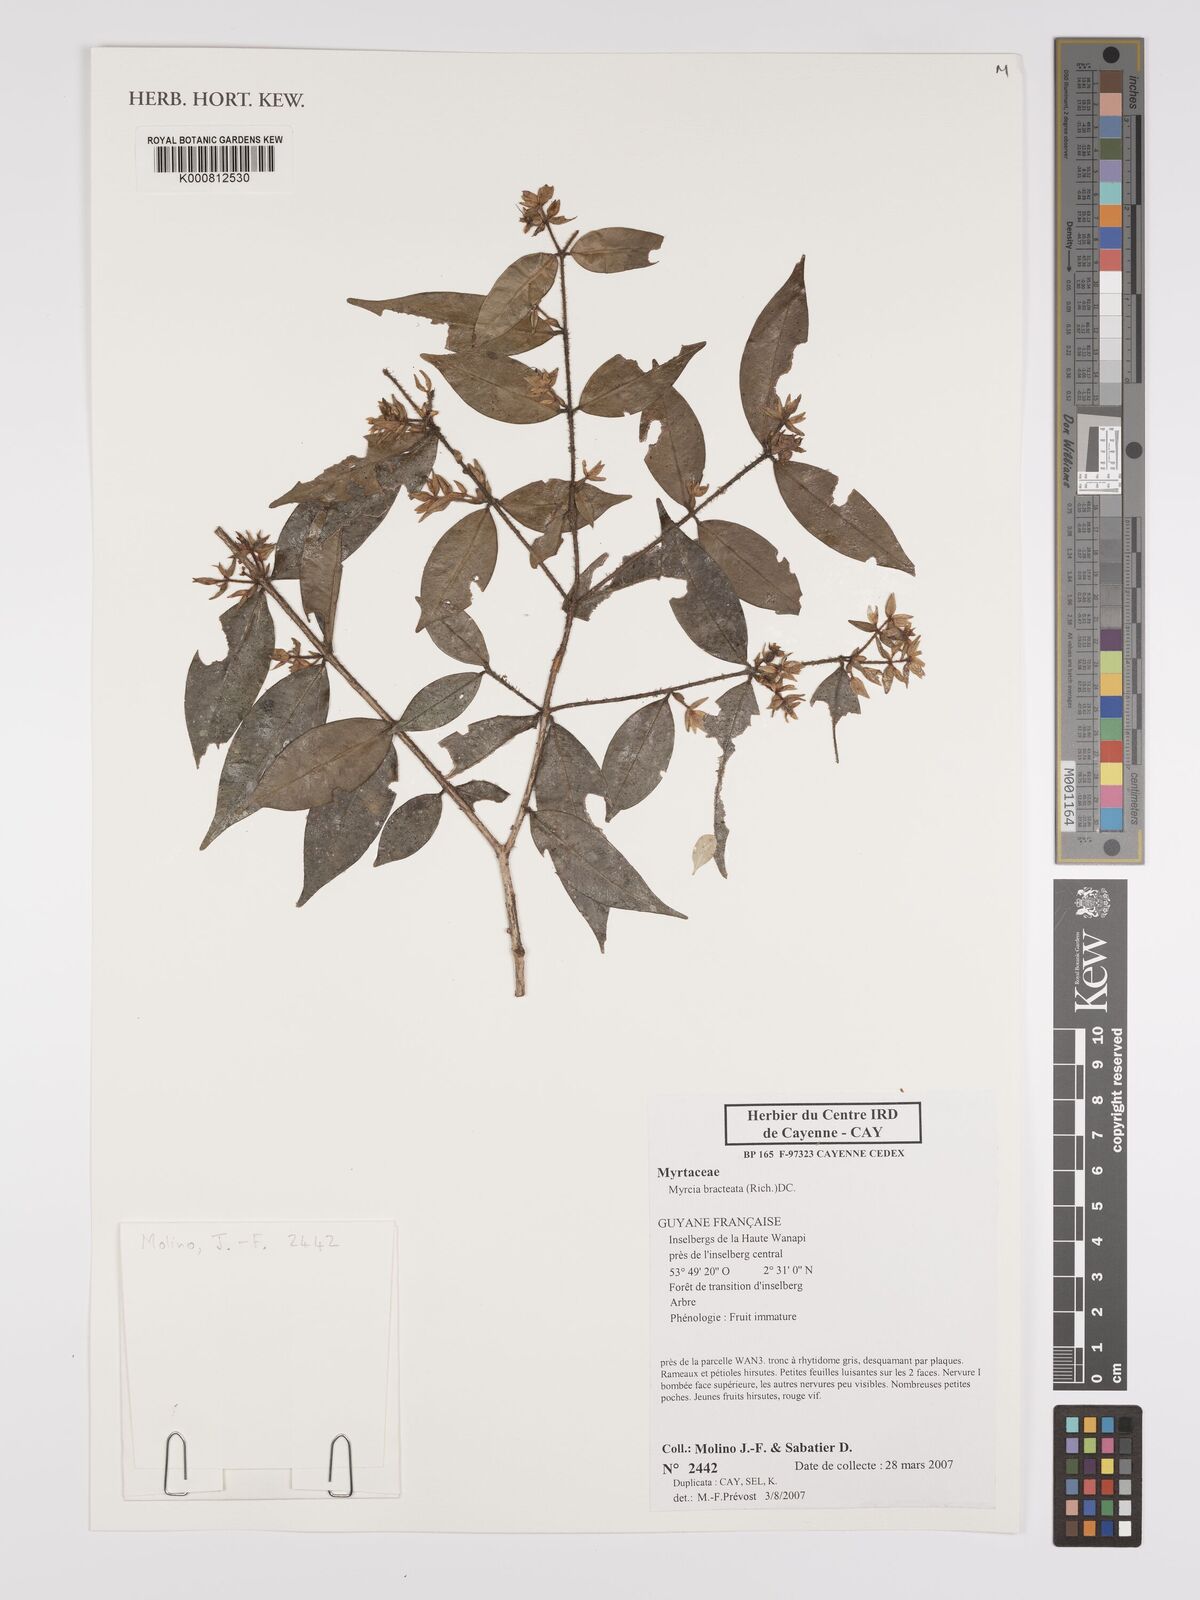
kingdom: Plantae
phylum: Tracheophyta
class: Magnoliopsida
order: Myrtales
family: Myrtaceae
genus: Myrcia
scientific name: Myrcia bracteata
